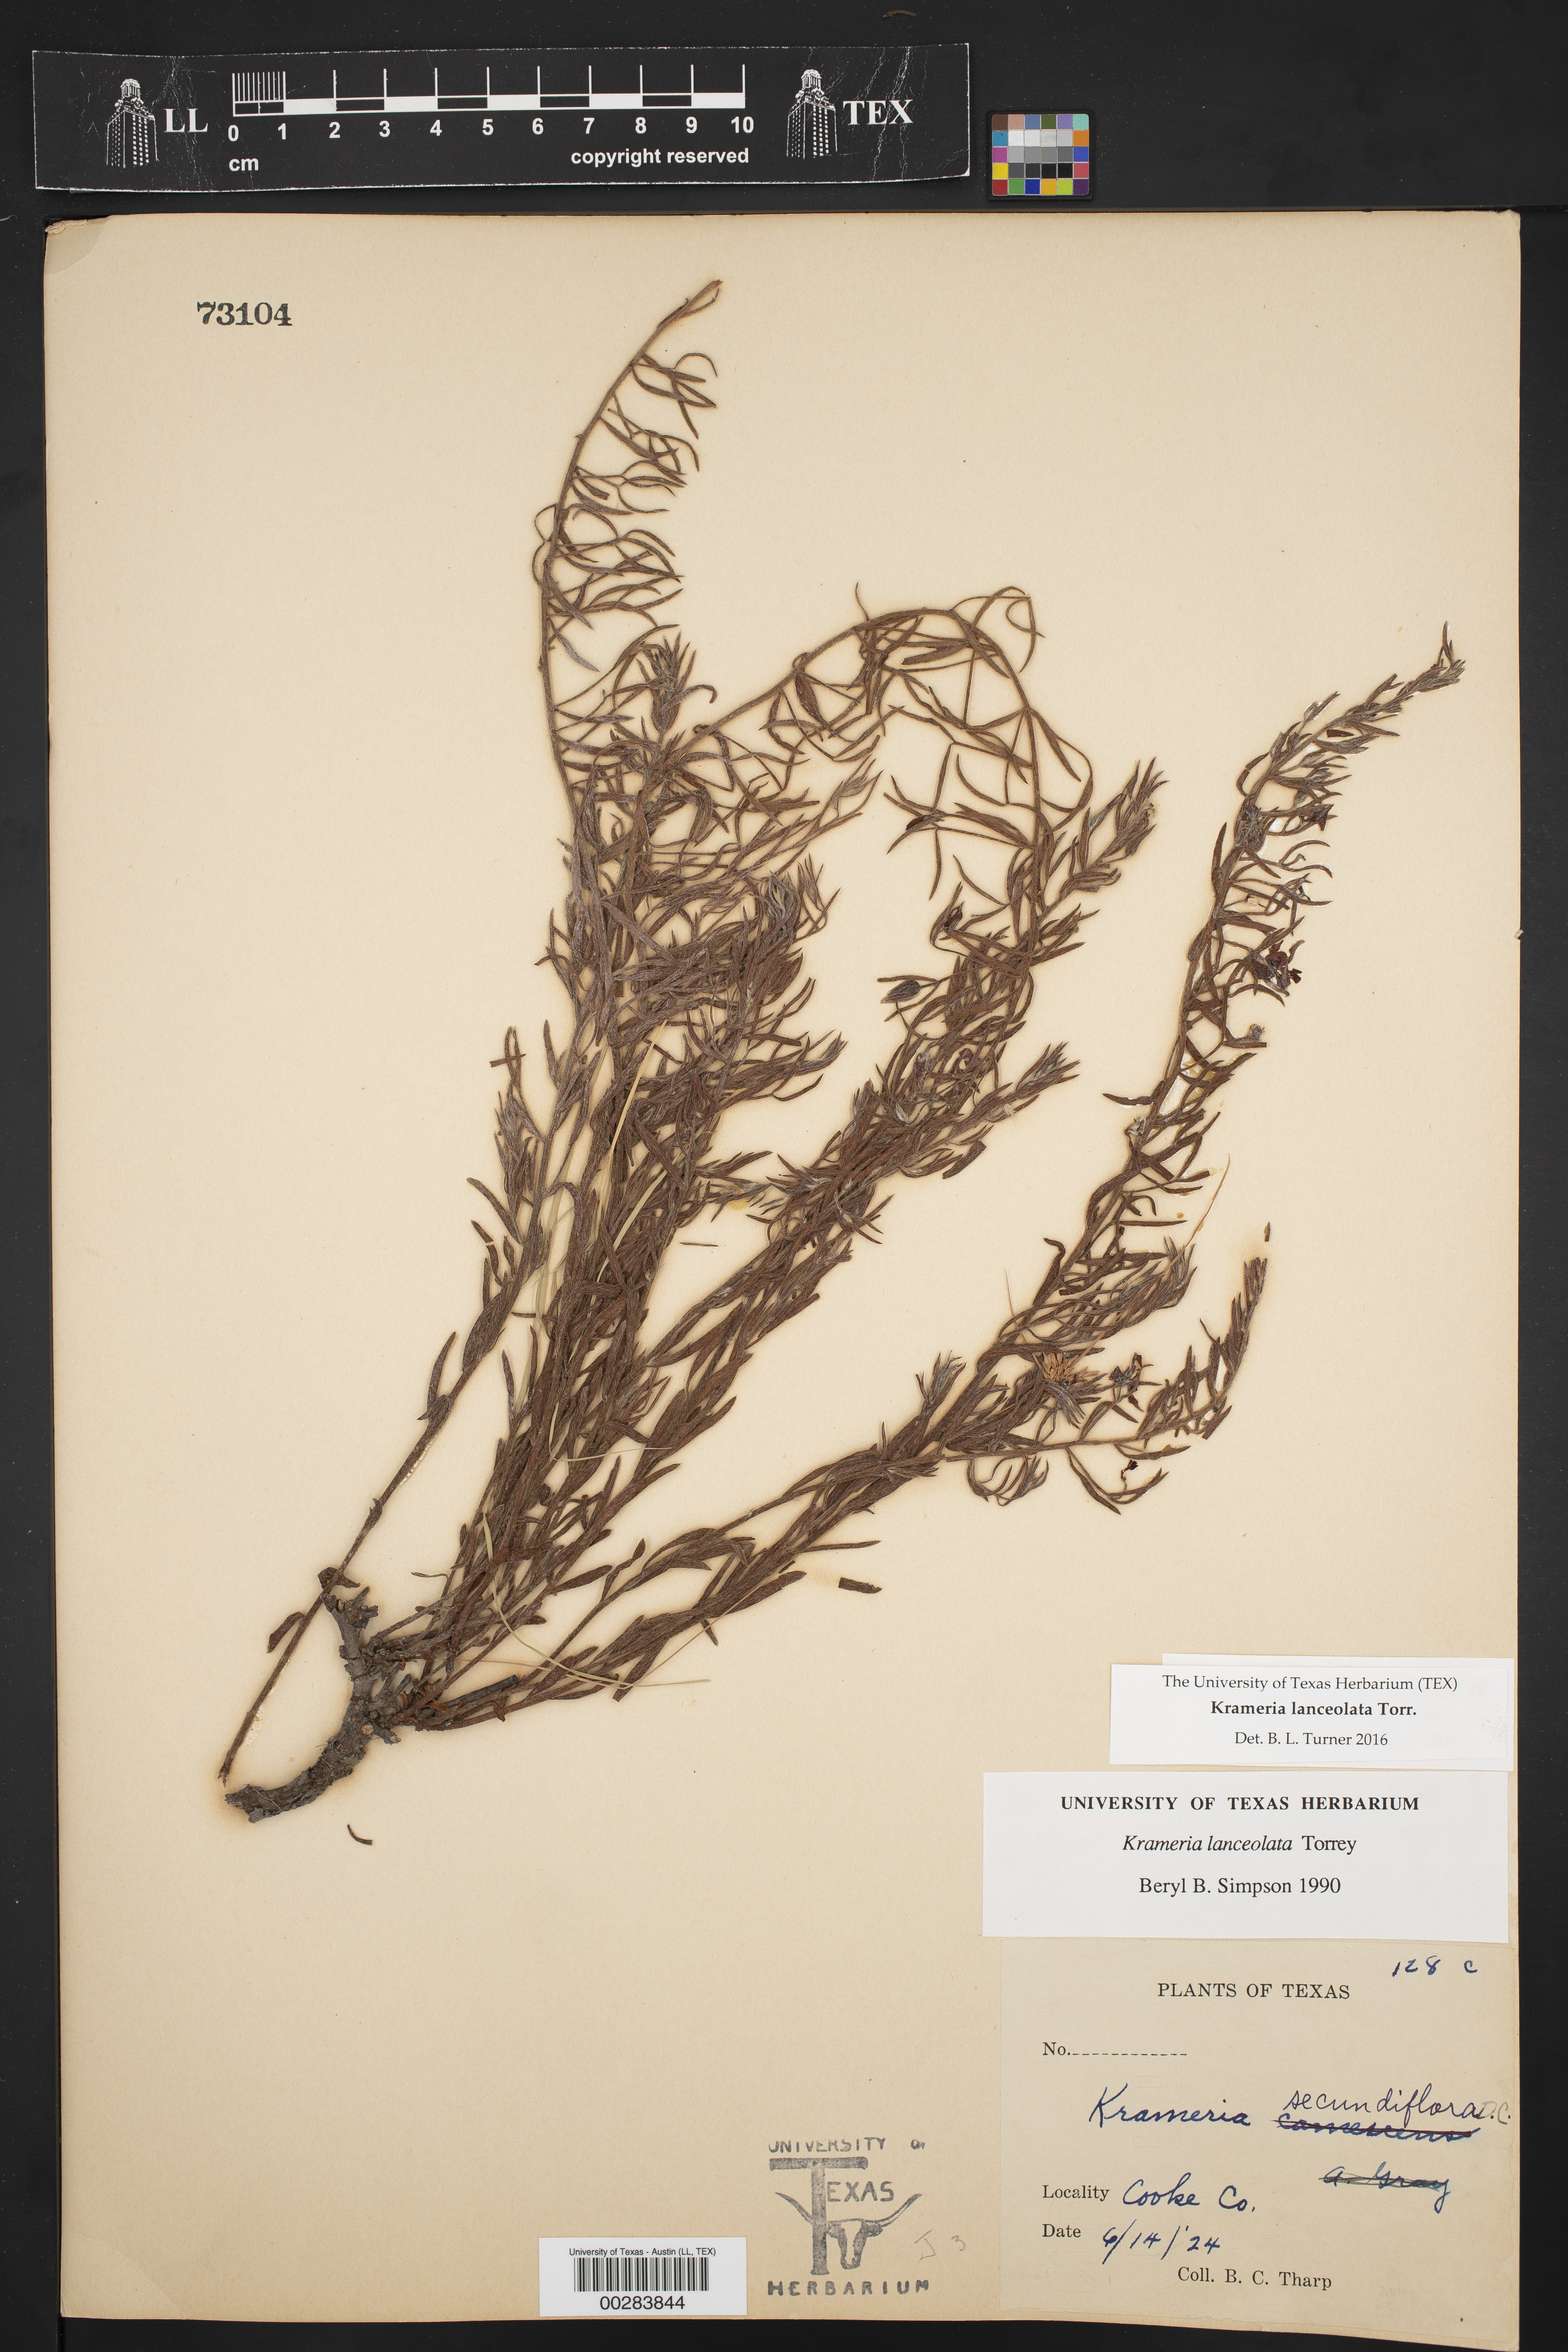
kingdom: Plantae
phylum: Tracheophyta
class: Magnoliopsida
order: Zygophyllales
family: Krameriaceae
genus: Krameria
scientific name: Krameria lanceolata
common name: Ratany
